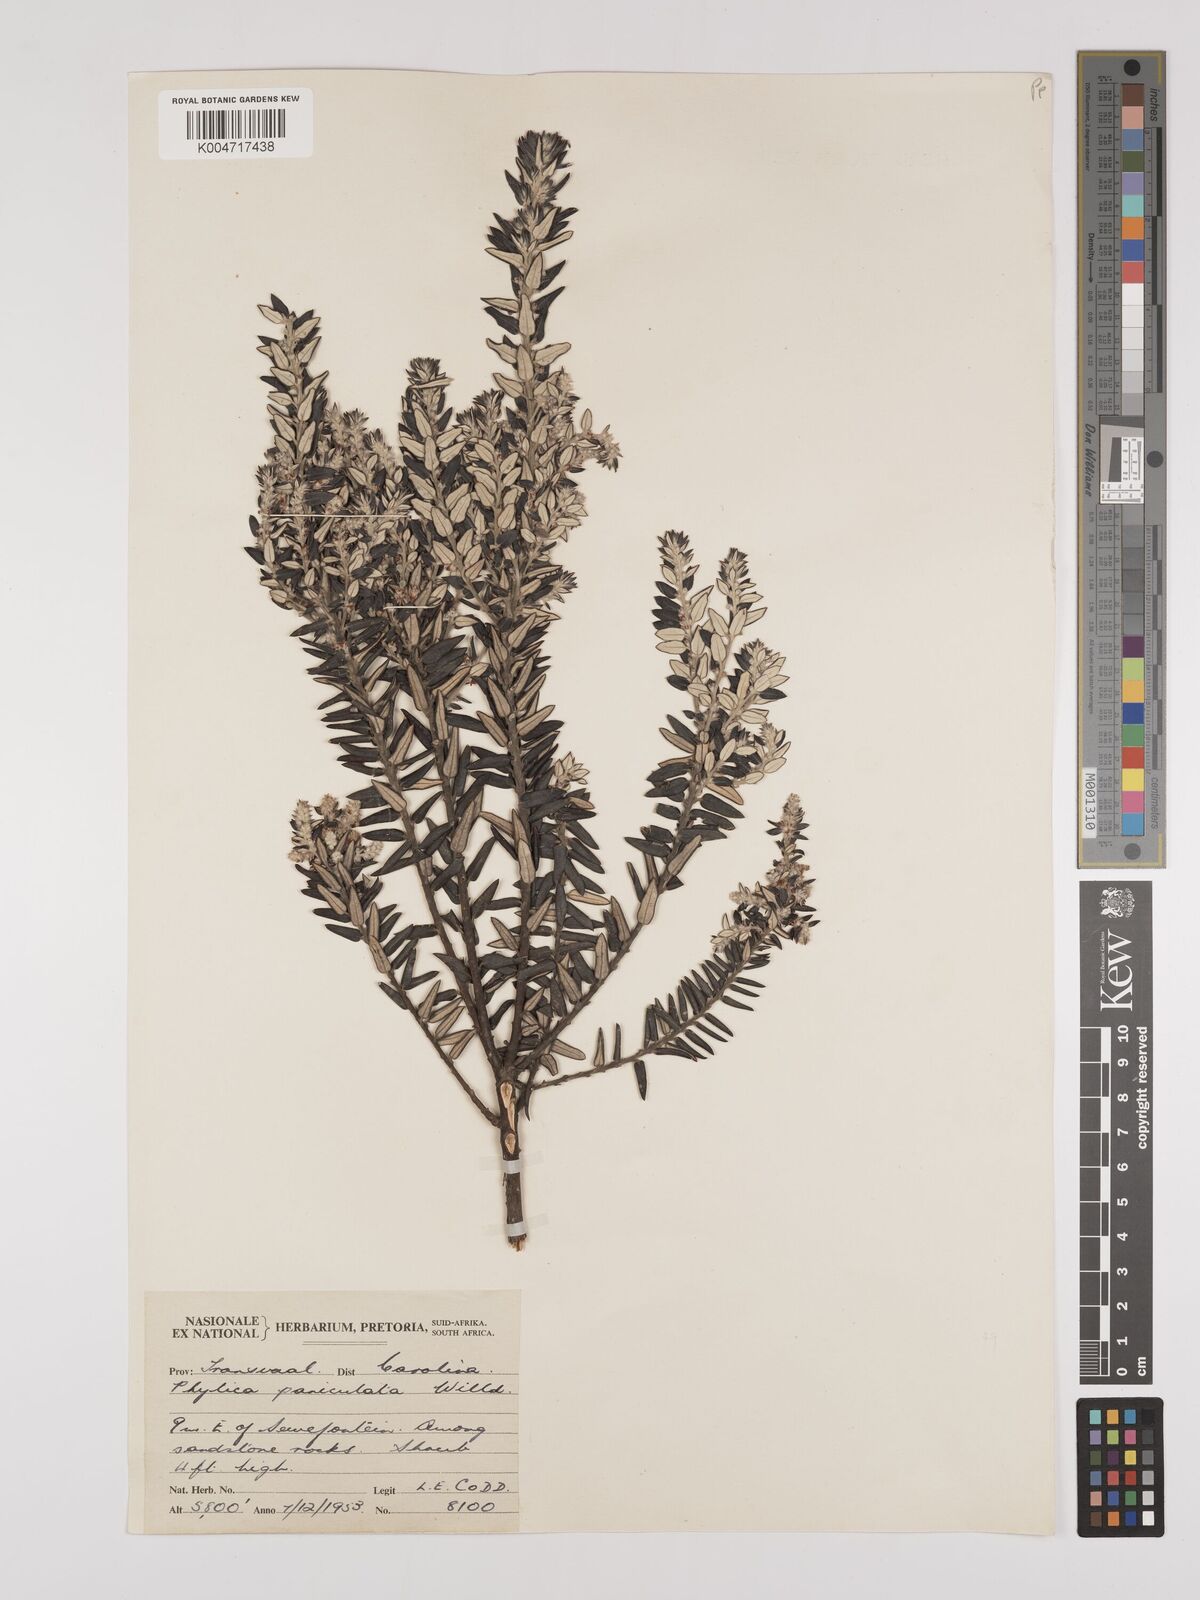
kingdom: Plantae
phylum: Tracheophyta
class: Magnoliopsida
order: Rosales
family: Rhamnaceae
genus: Phylica
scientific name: Phylica paniculata
